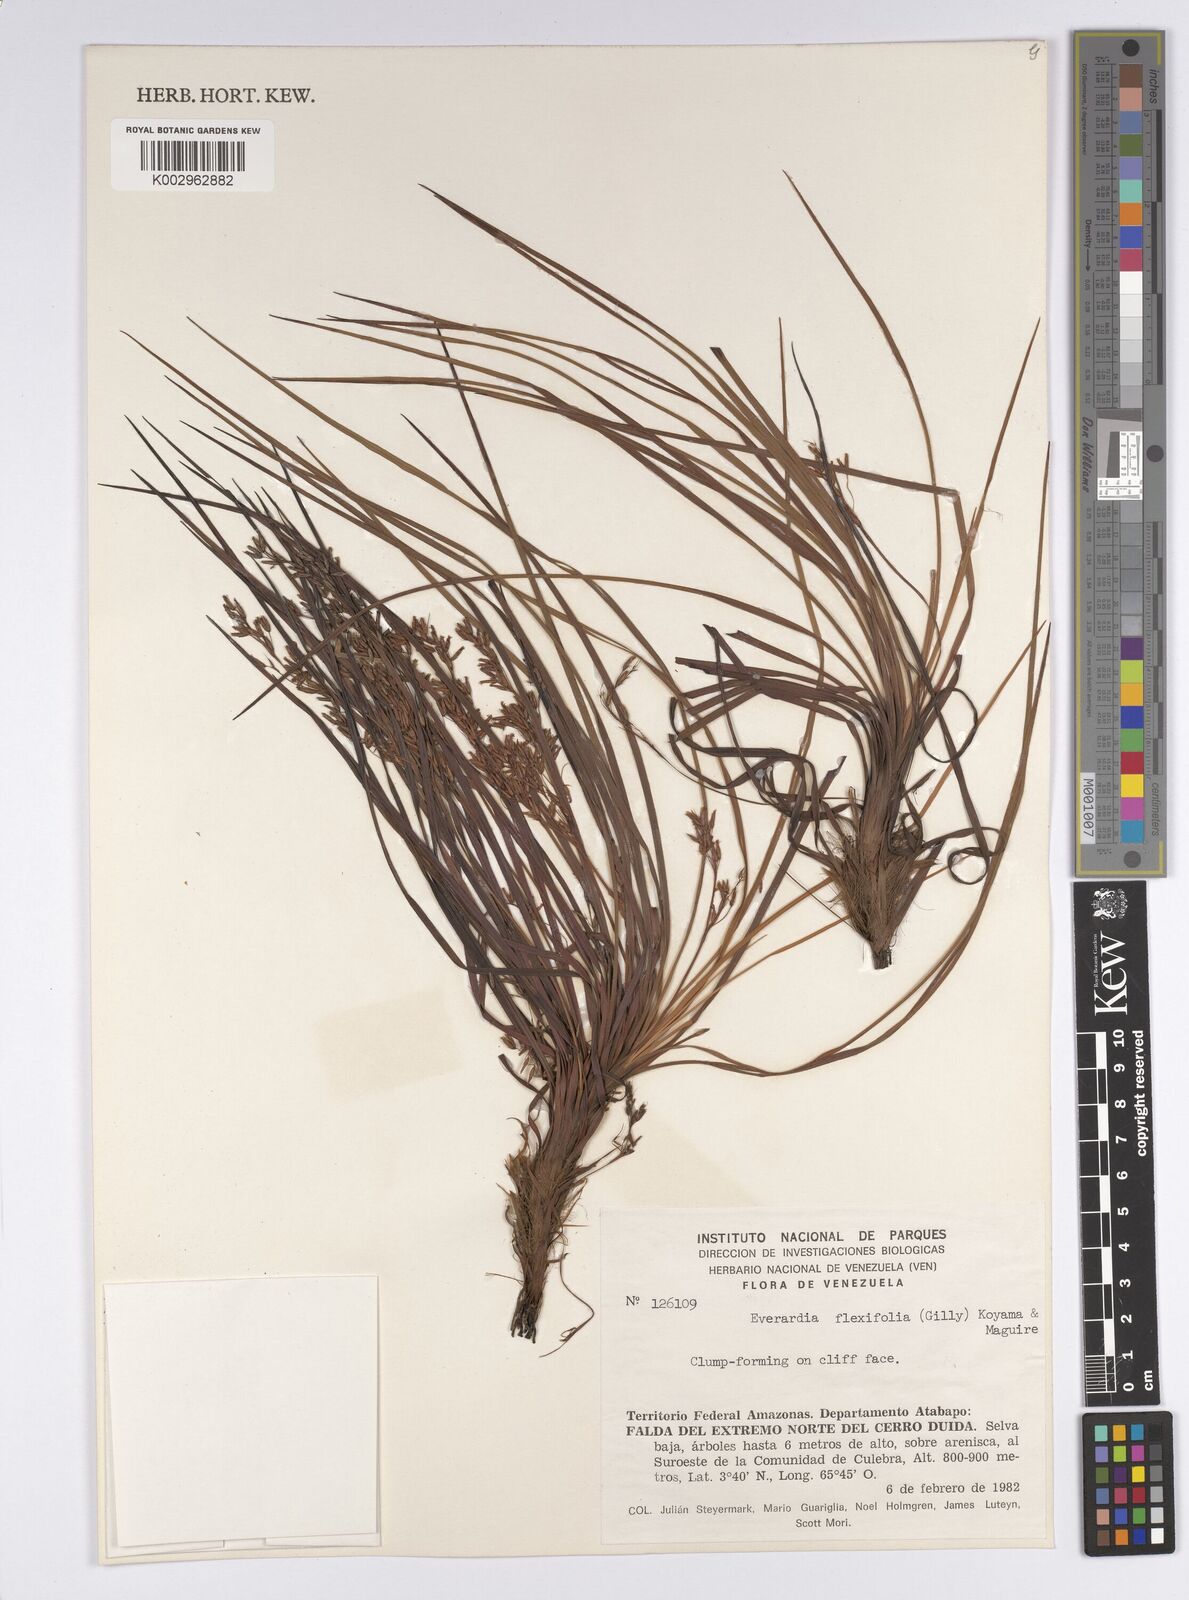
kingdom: Plantae
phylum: Tracheophyta
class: Liliopsida
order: Poales
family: Cyperaceae
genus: Cephalocarpus
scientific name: Cephalocarpus flexifolium
